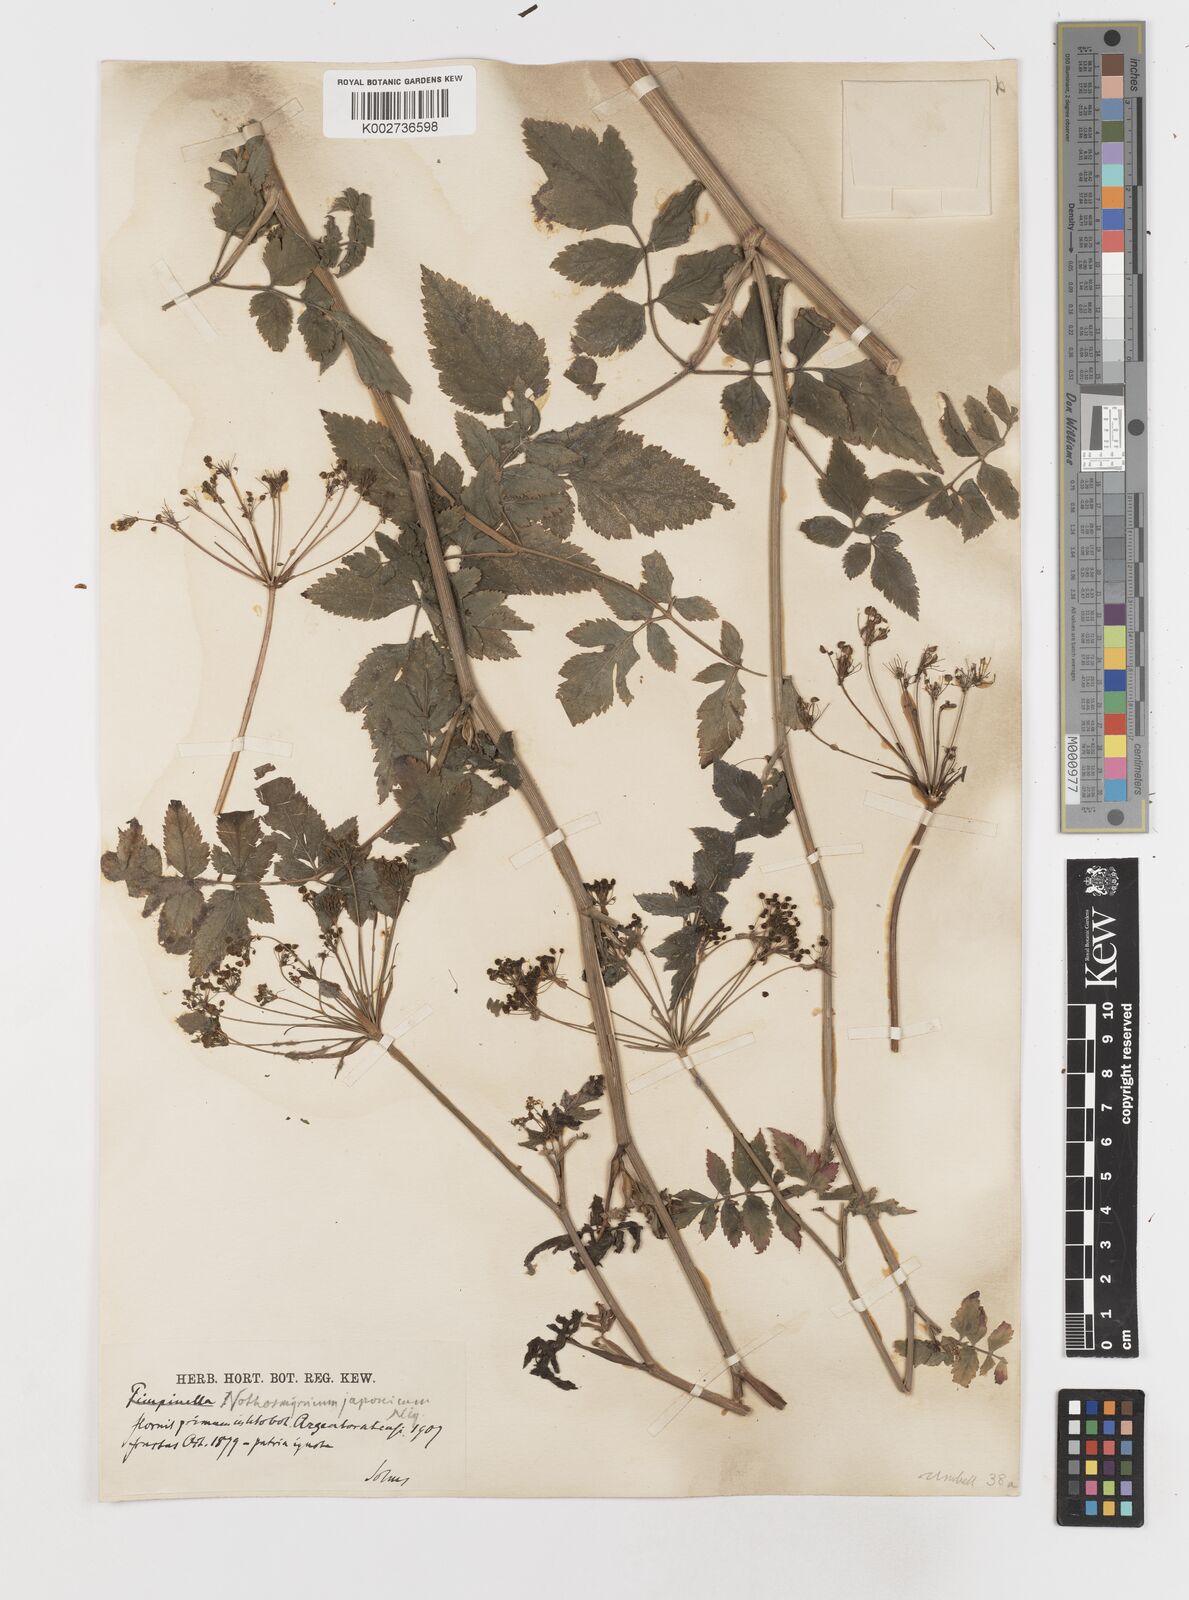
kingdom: Plantae
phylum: Tracheophyta
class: Magnoliopsida
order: Apiales
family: Apiaceae
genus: Nothosmyrnium
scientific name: Nothosmyrnium japonicum
